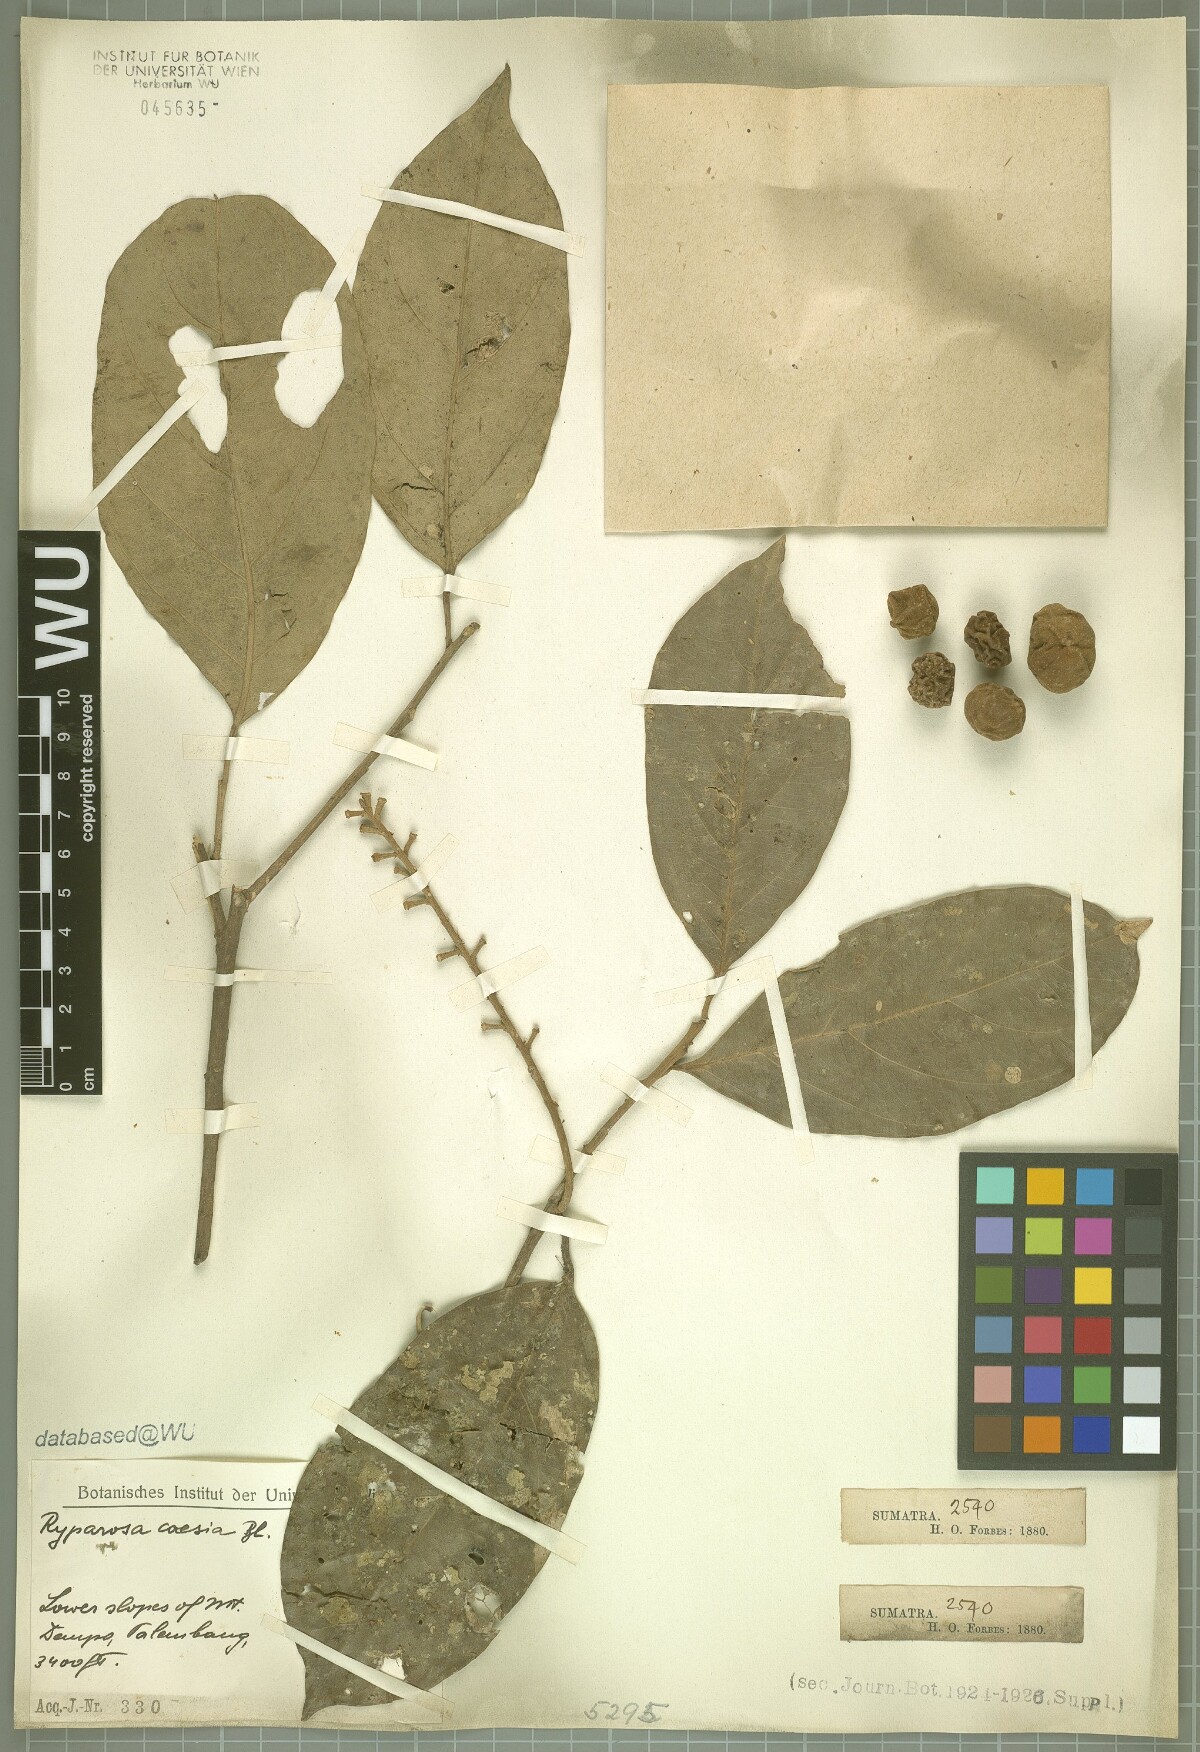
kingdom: Plantae
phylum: Tracheophyta
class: Magnoliopsida
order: Malpighiales
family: Achariaceae
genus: Ryparosa
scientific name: Ryparosa caesia
